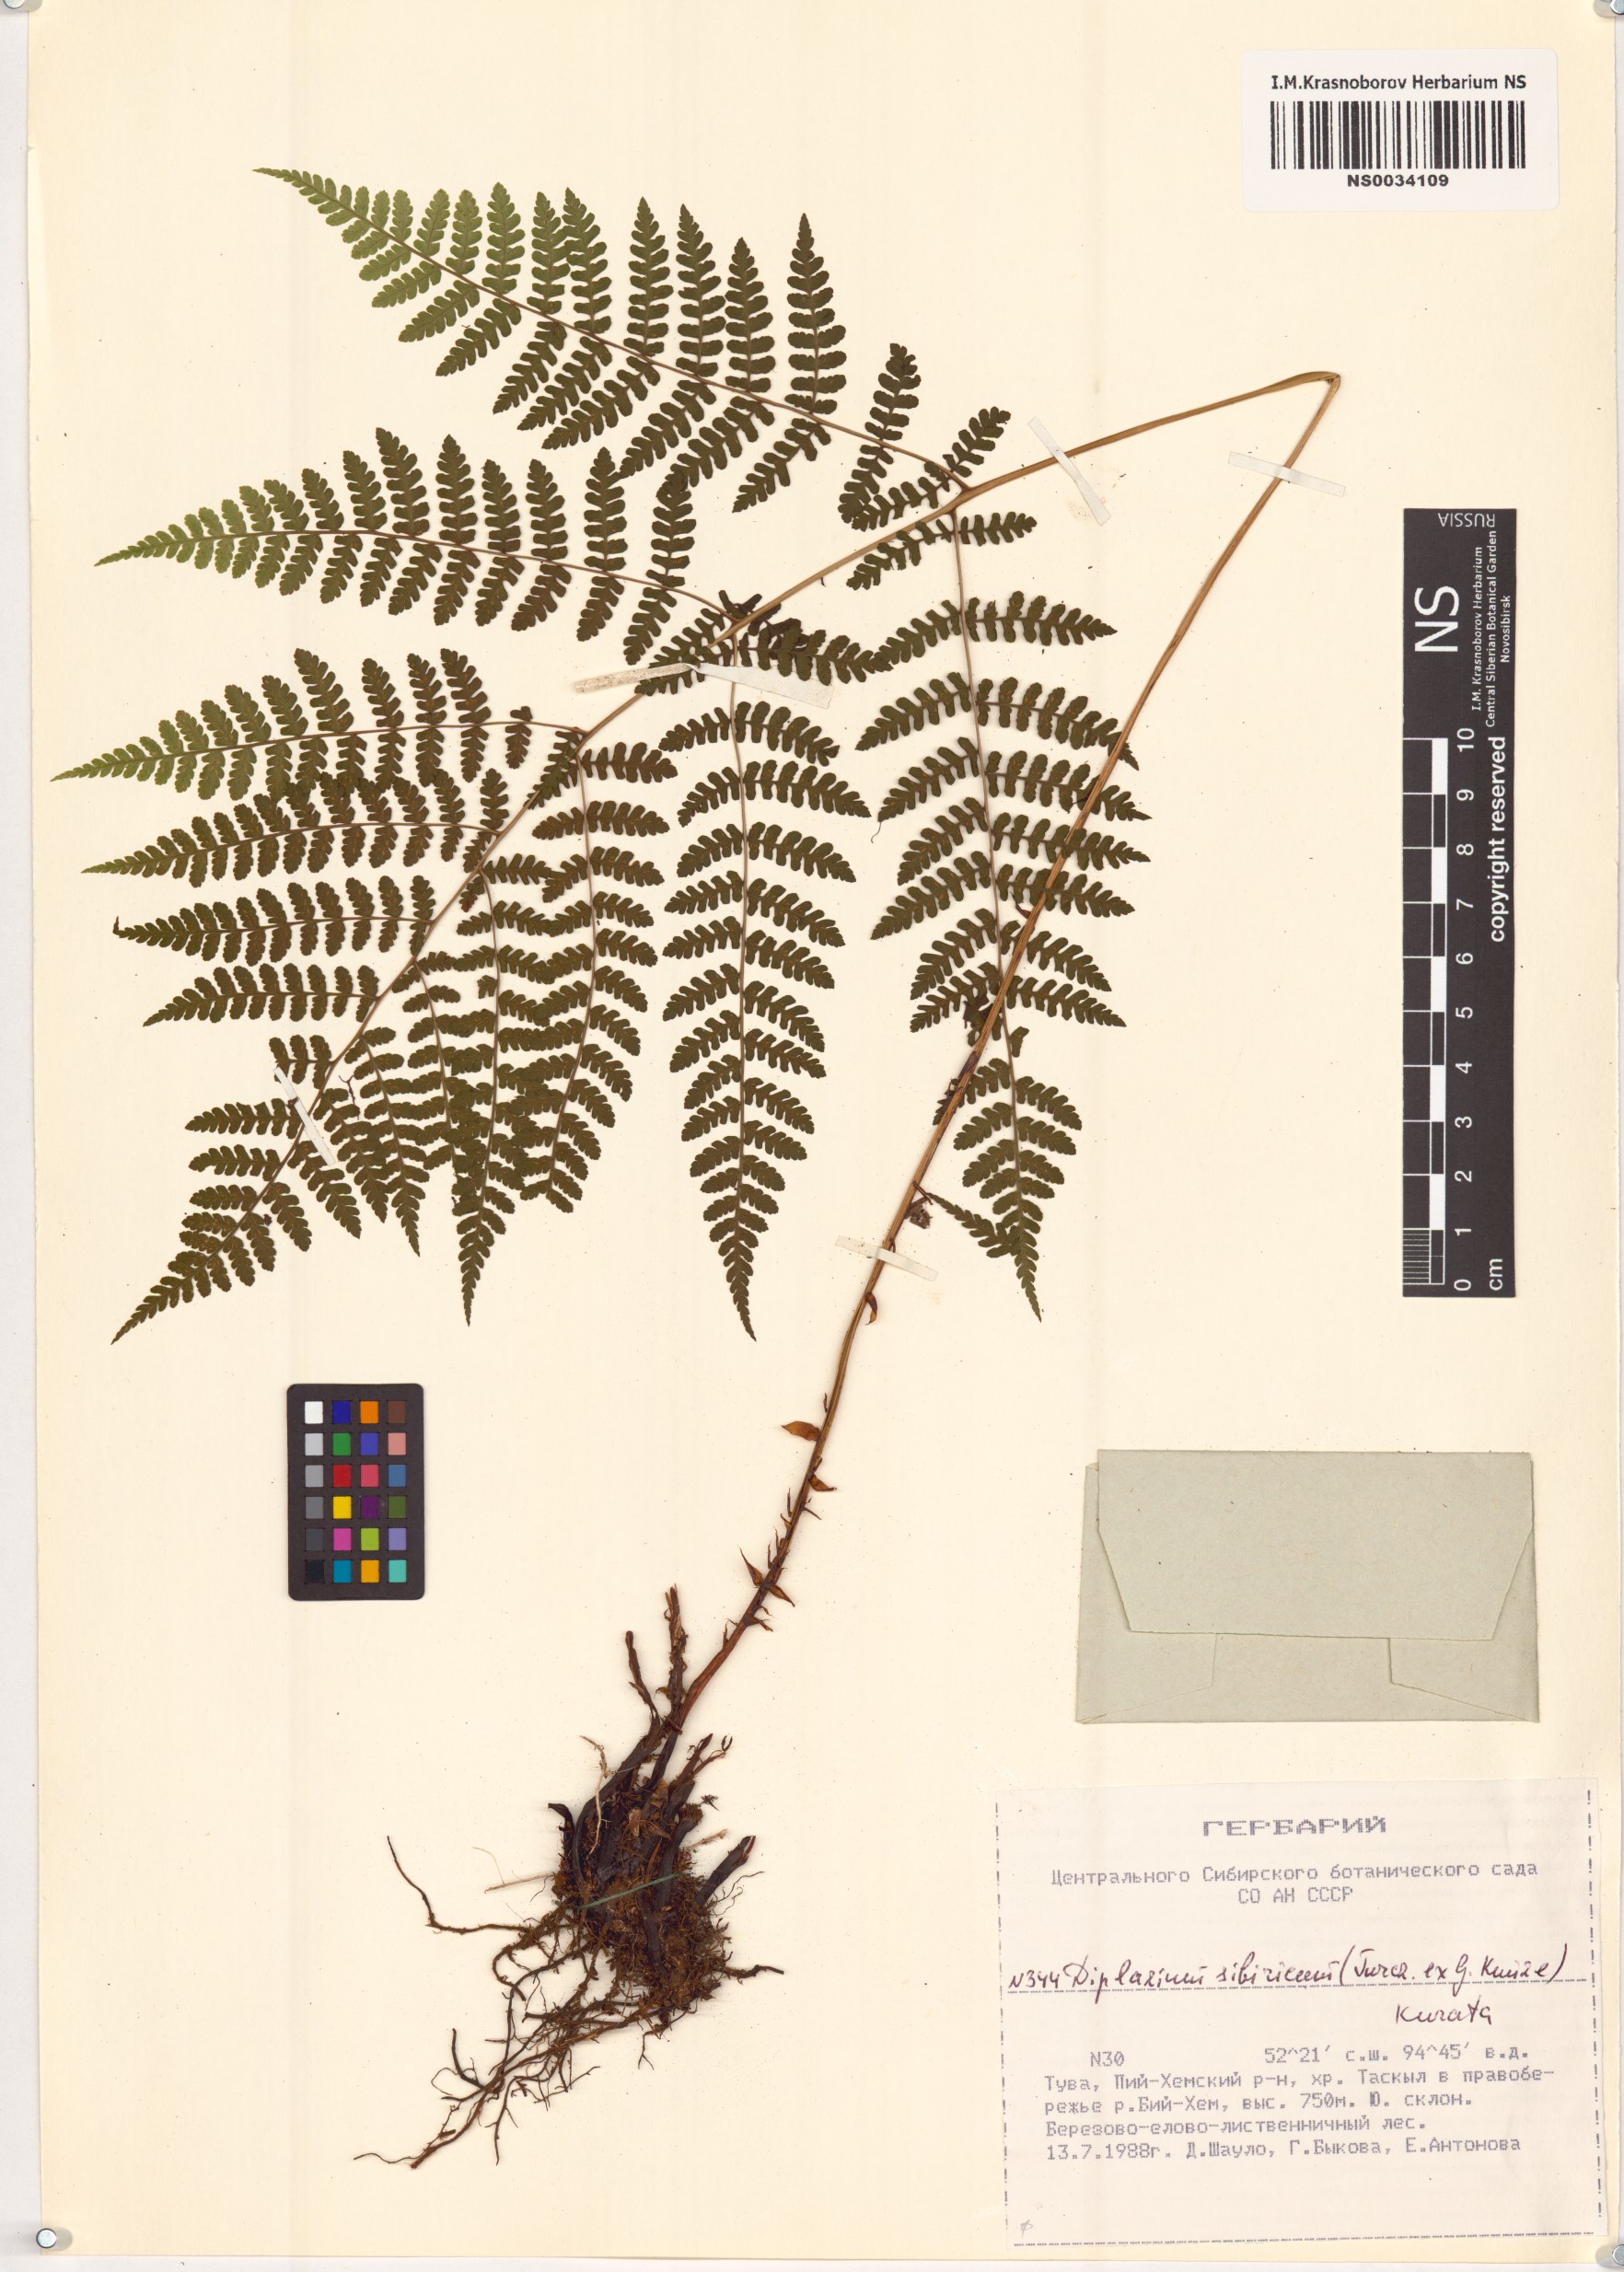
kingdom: Plantae
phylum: Tracheophyta
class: Polypodiopsida
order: Polypodiales
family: Athyriaceae
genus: Diplazium
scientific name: Diplazium sibiricum
